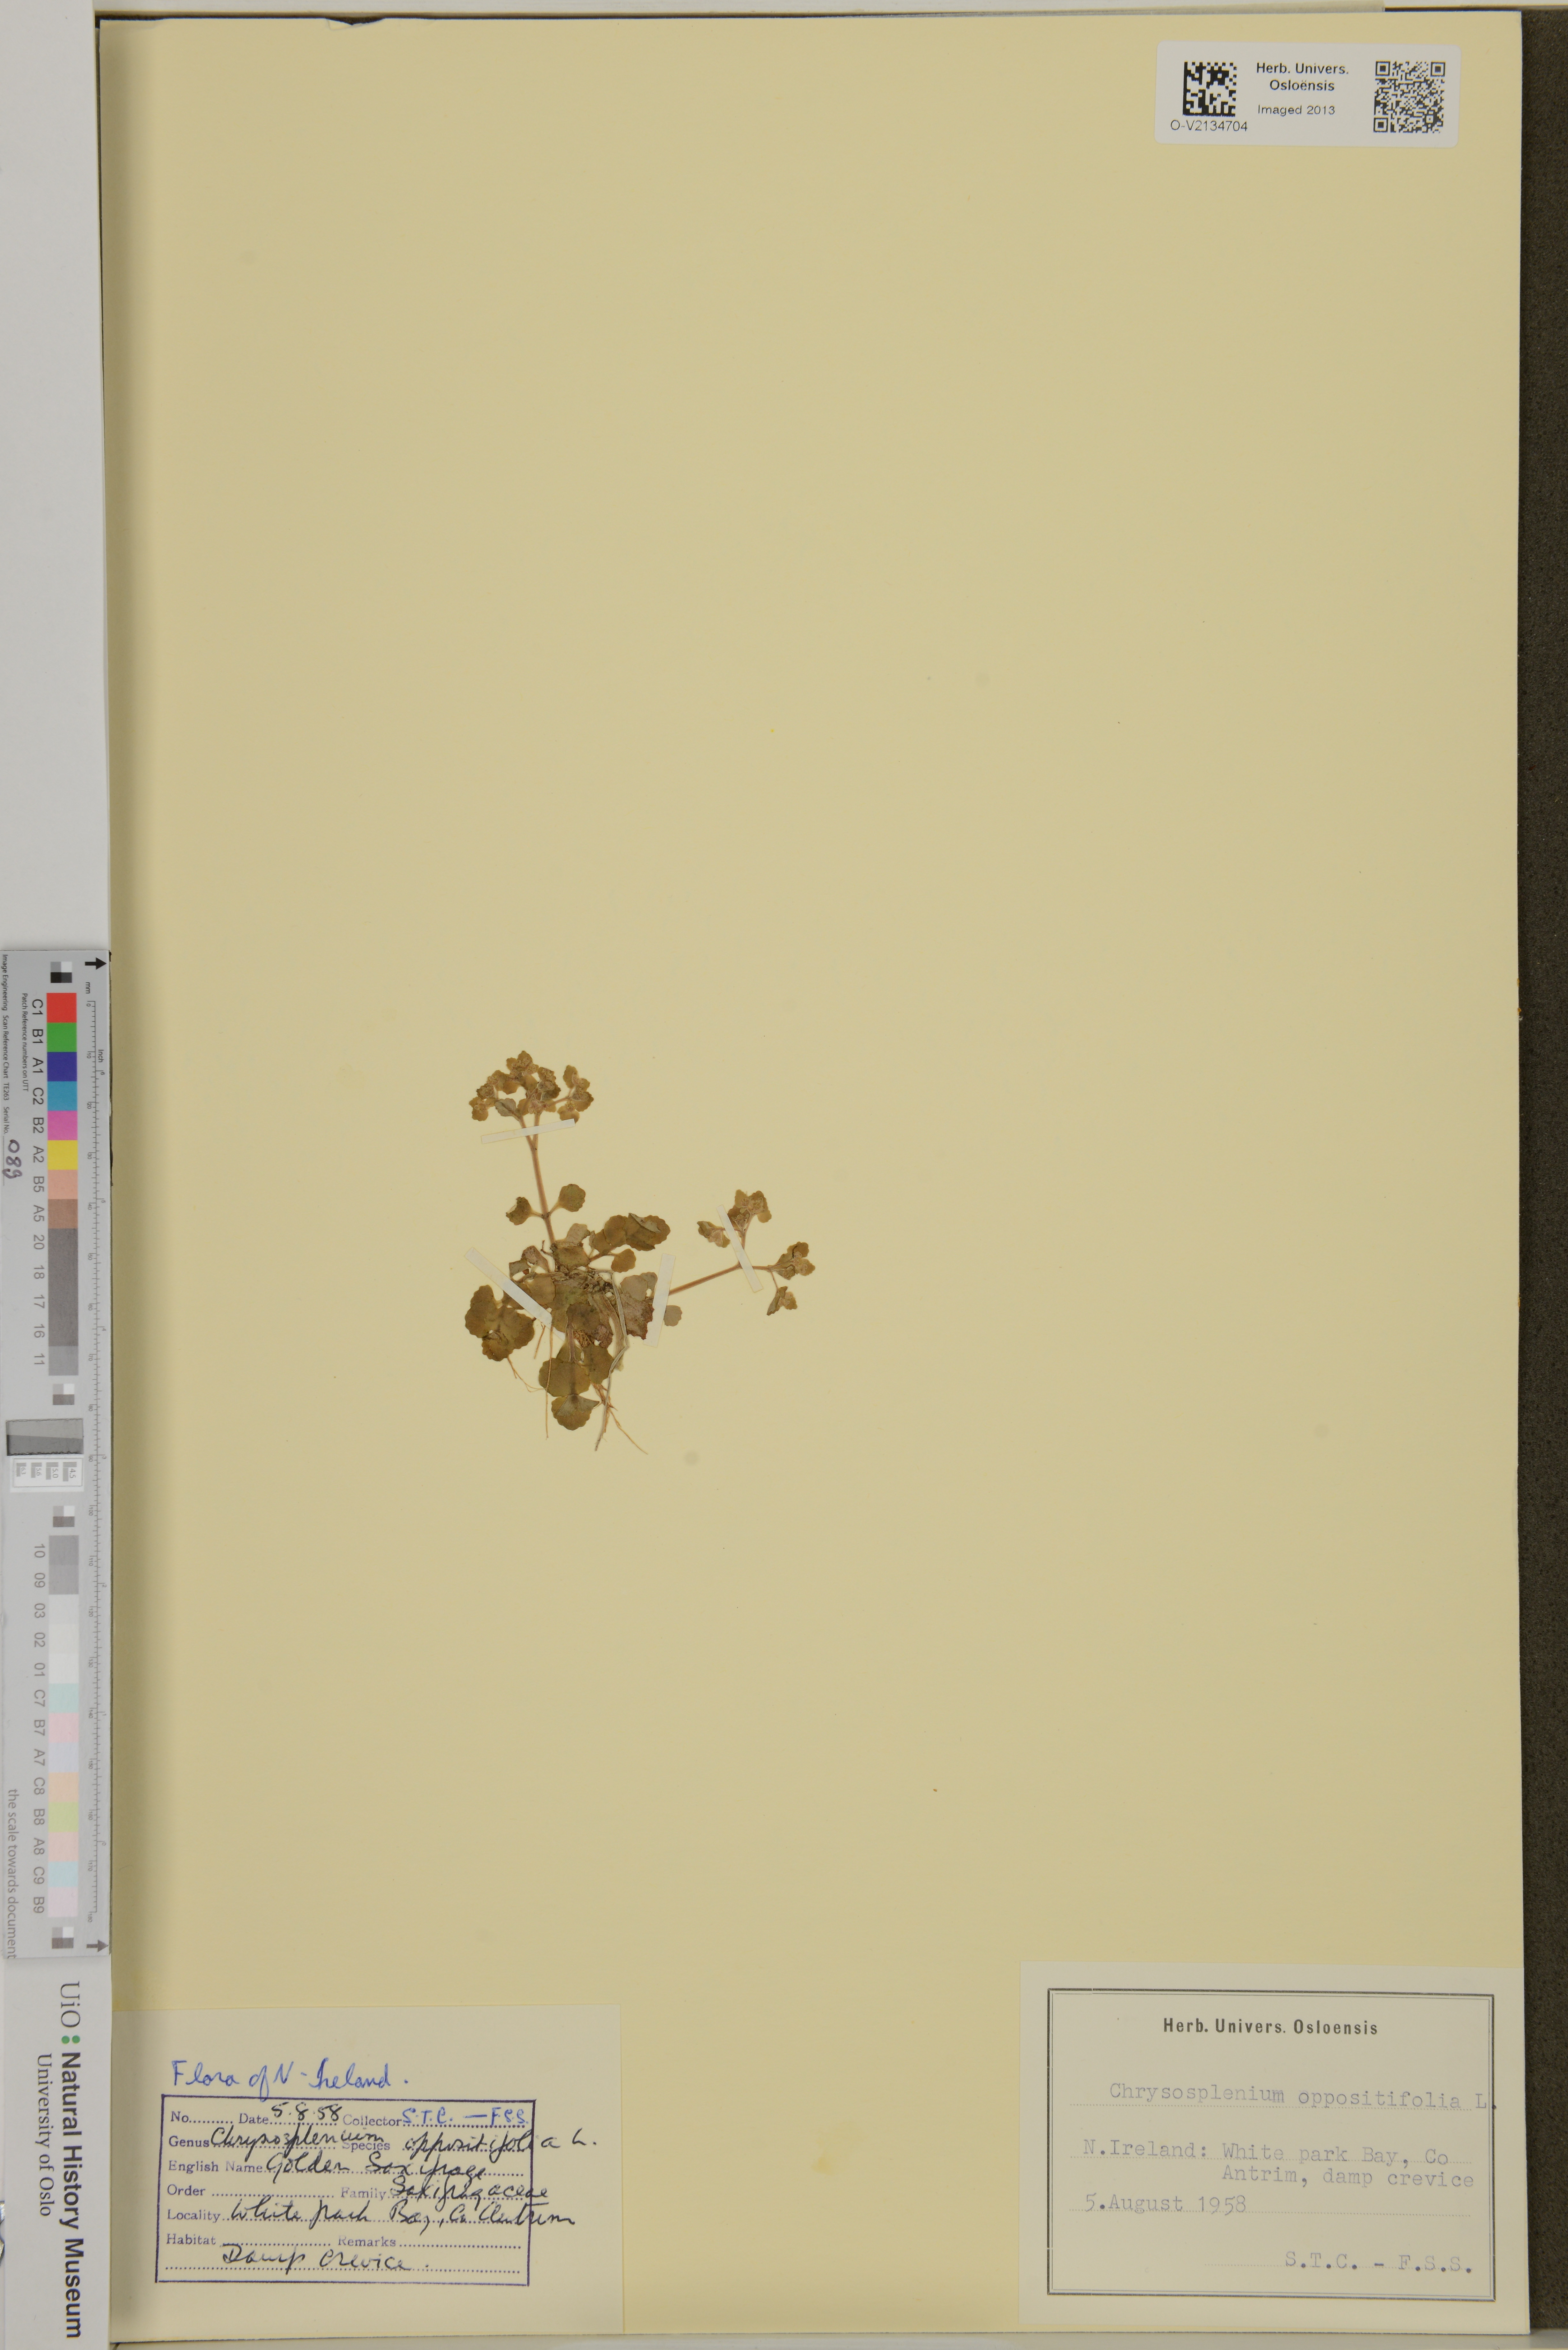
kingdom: Plantae
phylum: Tracheophyta
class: Magnoliopsida
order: Saxifragales
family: Saxifragaceae
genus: Chrysosplenium
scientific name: Chrysosplenium oppositifolium
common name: Opposite-leaved golden-saxifrage
